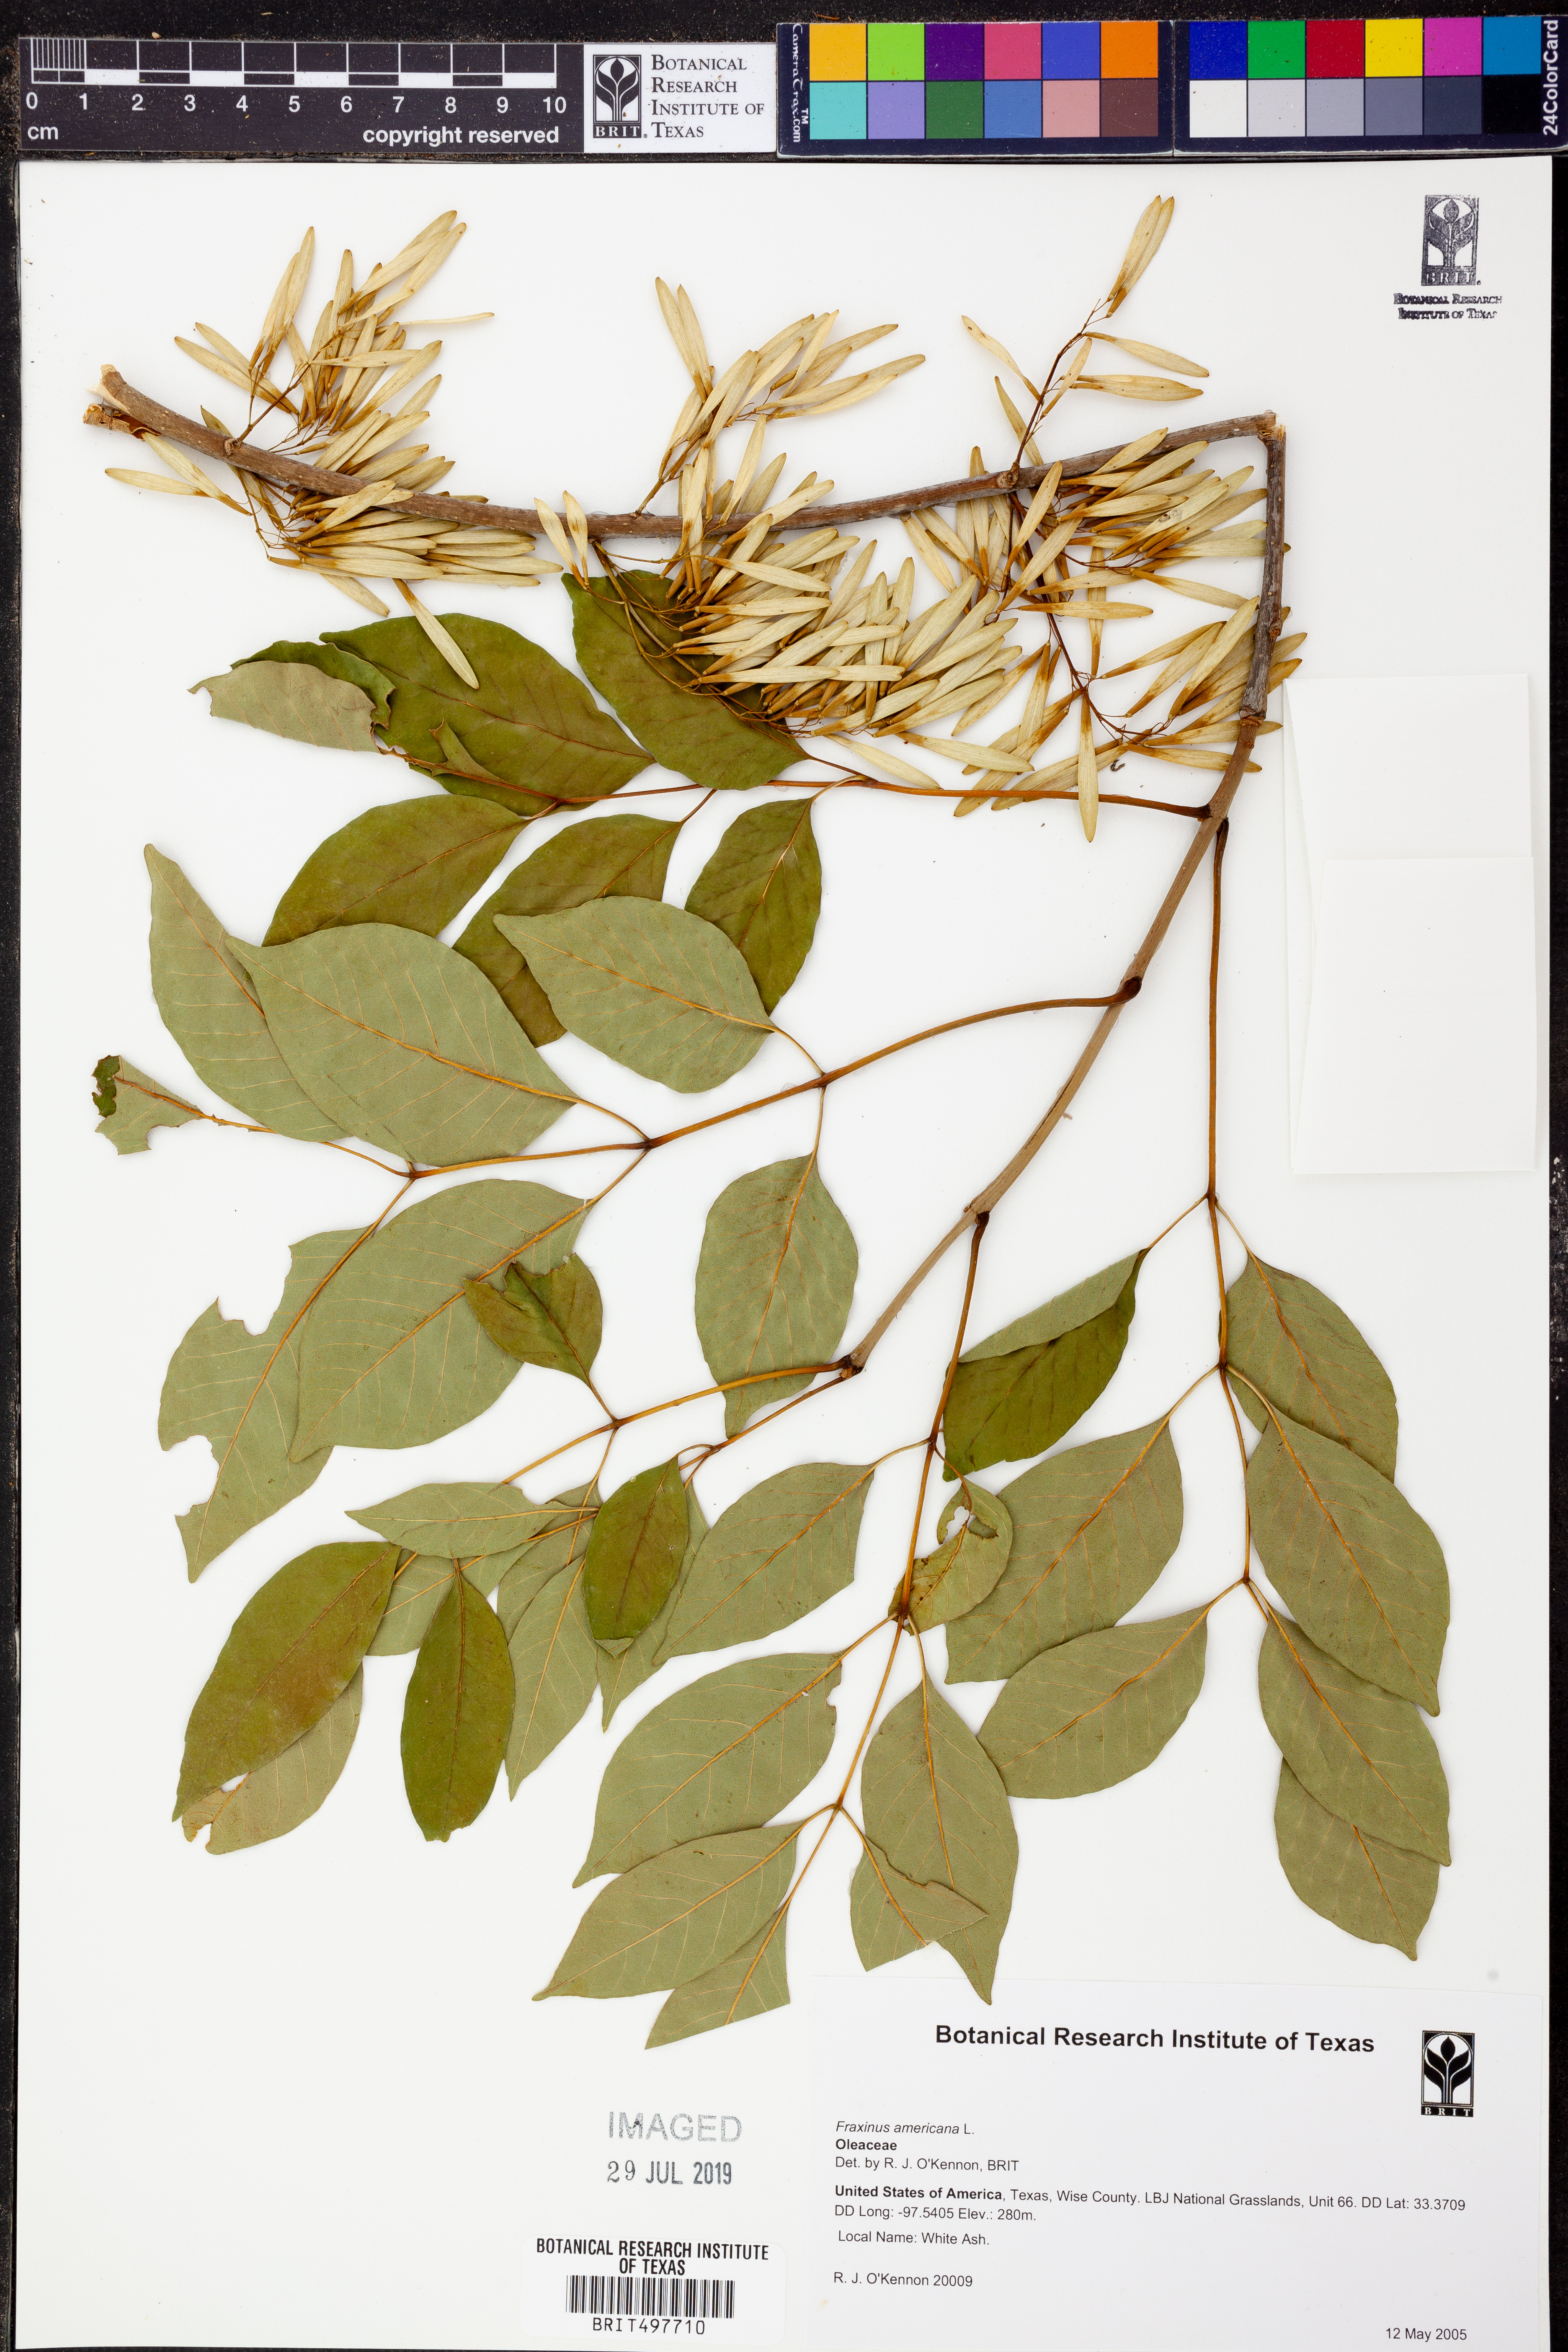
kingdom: Plantae
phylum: Tracheophyta
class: Magnoliopsida
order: Lamiales
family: Oleaceae
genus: Fraxinus
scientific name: Fraxinus americana
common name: White ash
